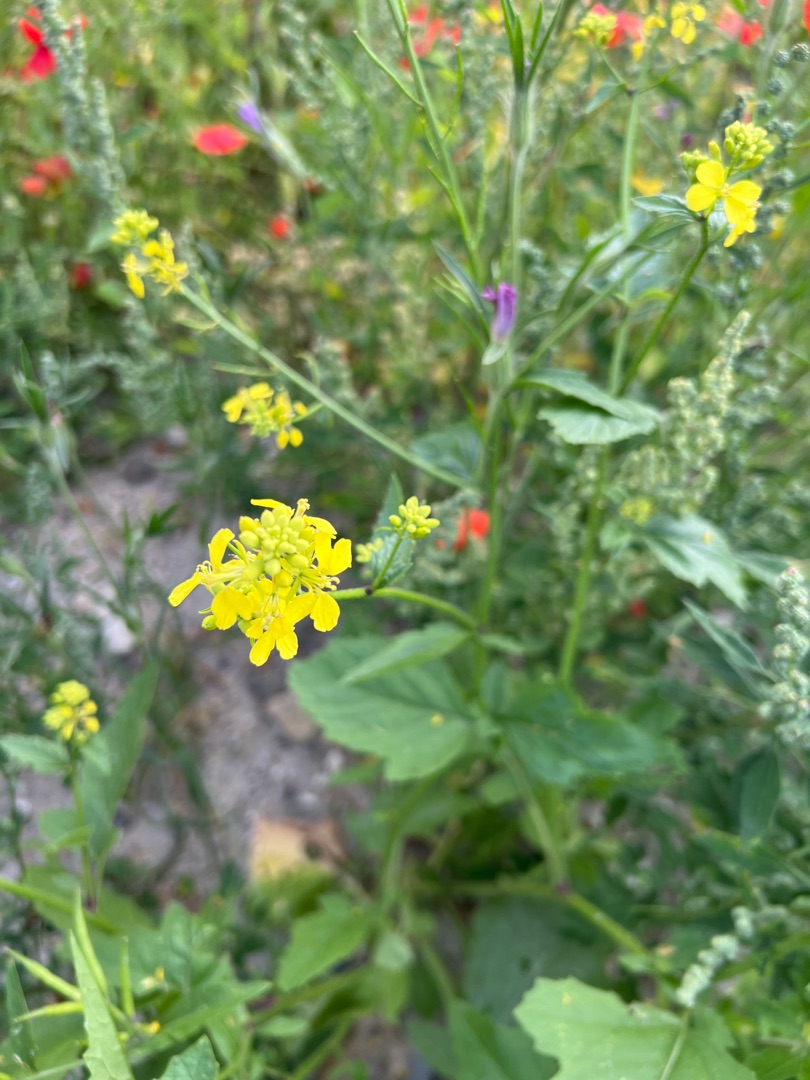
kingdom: Plantae
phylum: Tracheophyta
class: Magnoliopsida
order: Brassicales
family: Brassicaceae
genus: Sinapis
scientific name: Sinapis arvensis
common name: Ager-sennep
